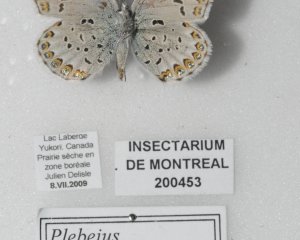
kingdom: Animalia
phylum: Arthropoda
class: Insecta
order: Lepidoptera
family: Lycaenidae
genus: Lycaeides
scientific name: Lycaeides idas
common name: Northern Blue
